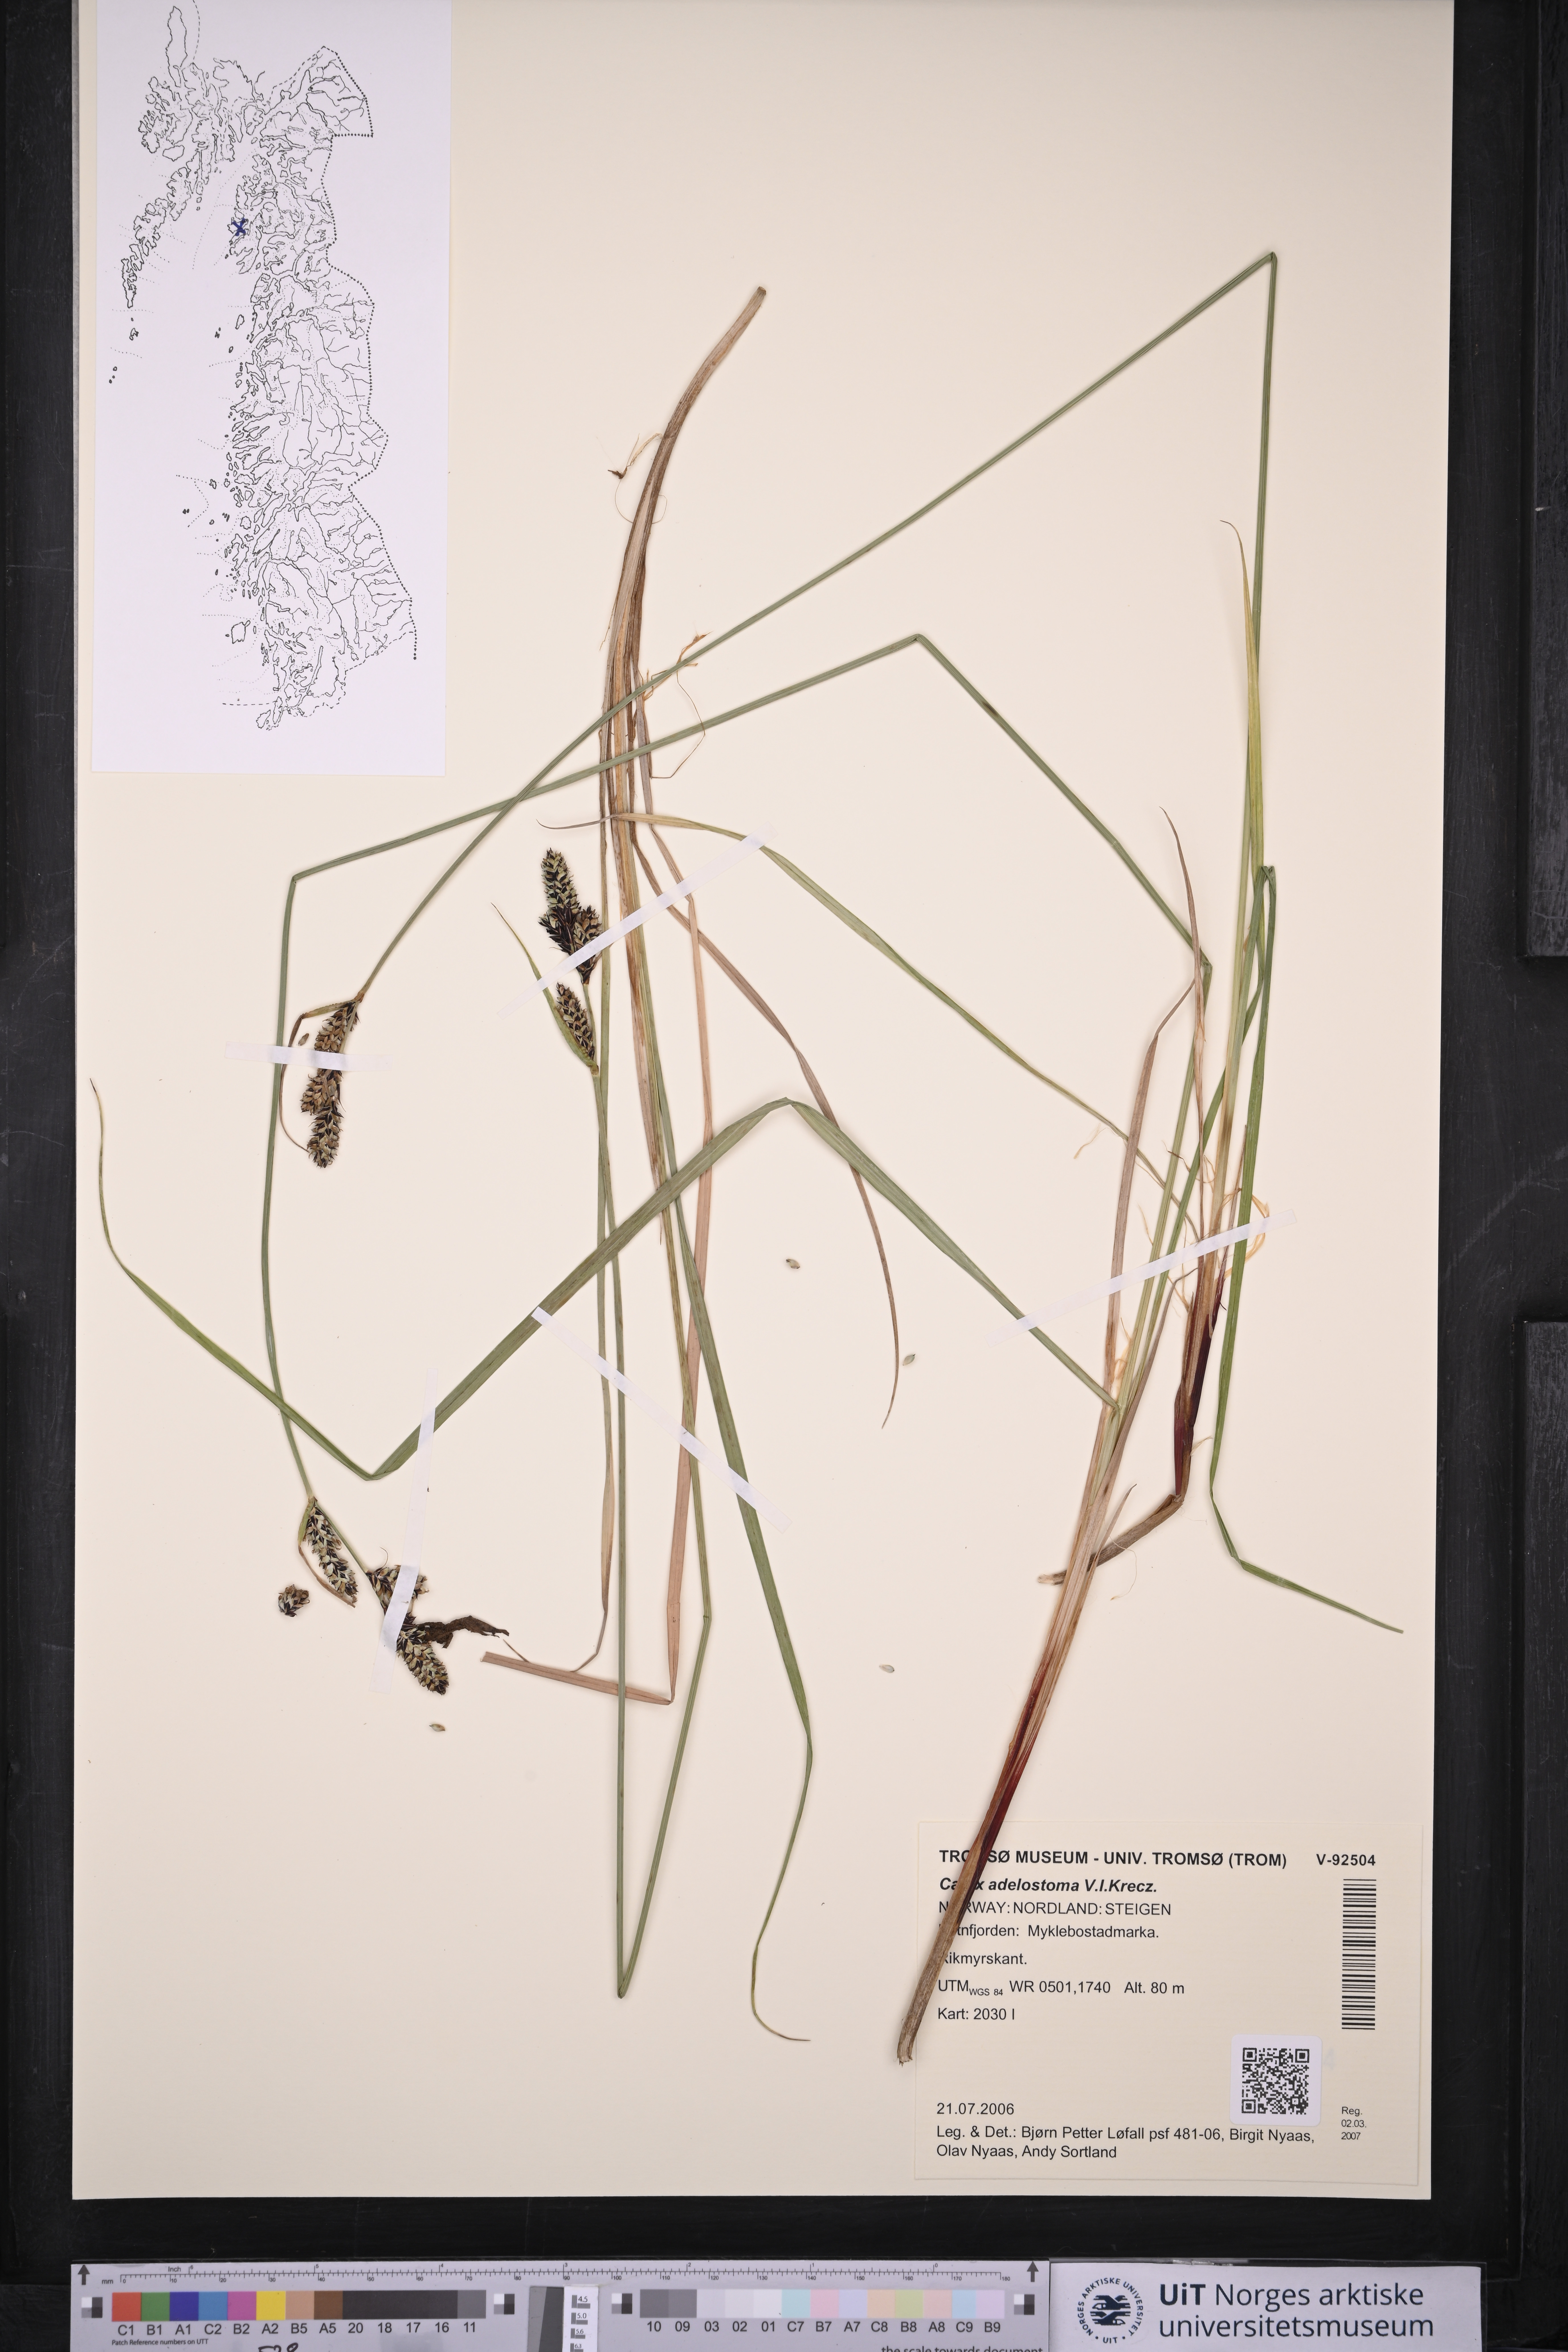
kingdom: Plantae
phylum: Tracheophyta
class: Liliopsida
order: Poales
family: Cyperaceae
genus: Carex
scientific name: Carex adelostoma
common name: Circumpolar sedge
